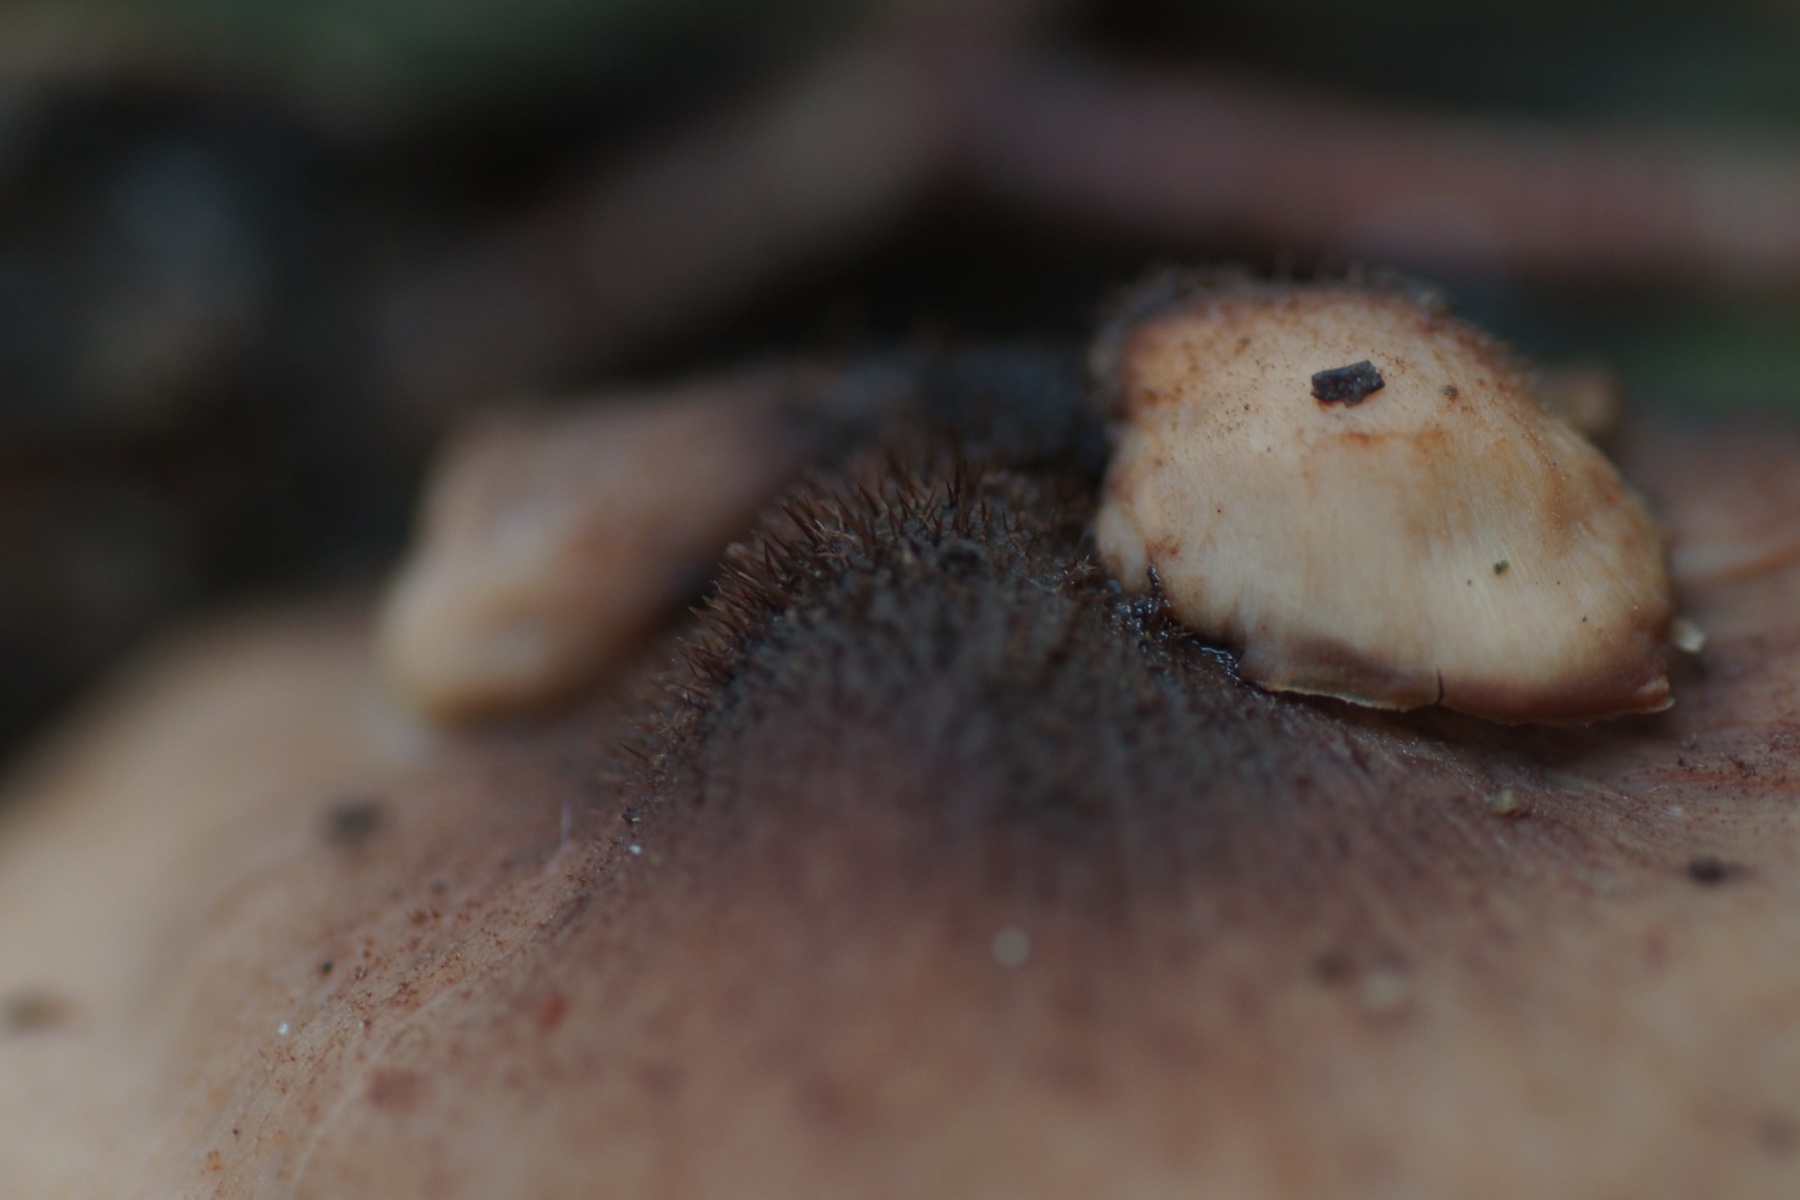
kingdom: Fungi
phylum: Basidiomycota
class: Agaricomycetes
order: Russulales
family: Auriscalpiaceae
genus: Lentinellus
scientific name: Lentinellus ursinus
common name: børstehåret savbladhat
